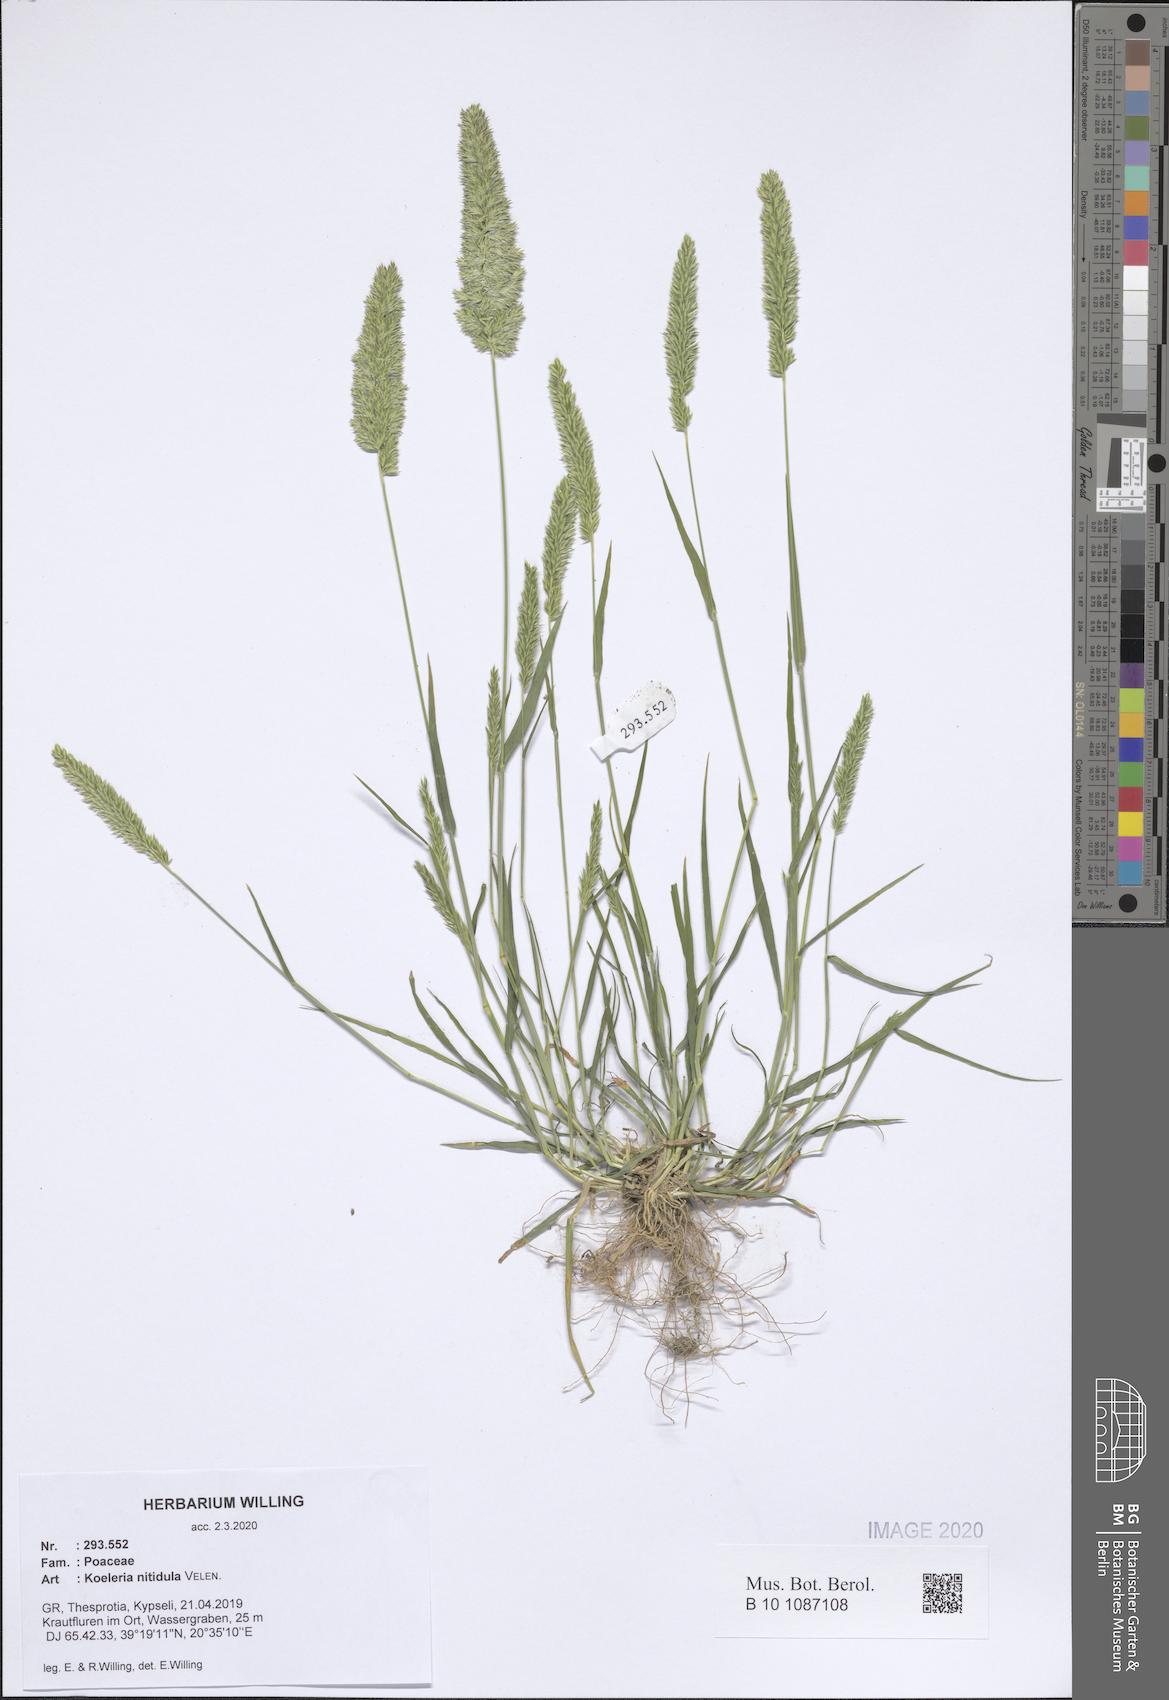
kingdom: Plantae
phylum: Tracheophyta
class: Liliopsida
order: Poales
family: Poaceae
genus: Koeleria
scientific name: Koeleria nitidula
